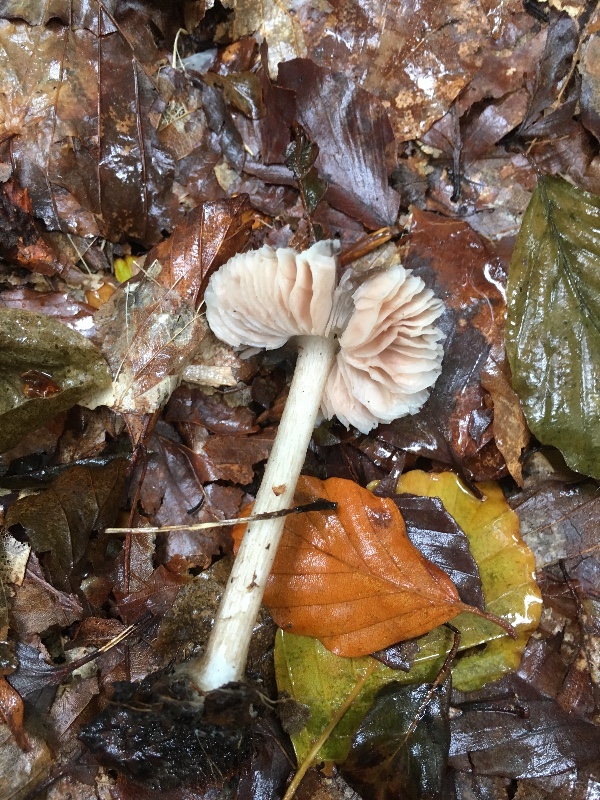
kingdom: Fungi
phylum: Basidiomycota
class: Agaricomycetes
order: Agaricales
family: Pluteaceae
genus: Pluteus
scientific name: Pluteus cervinus
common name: sodfarvet skærmhat
